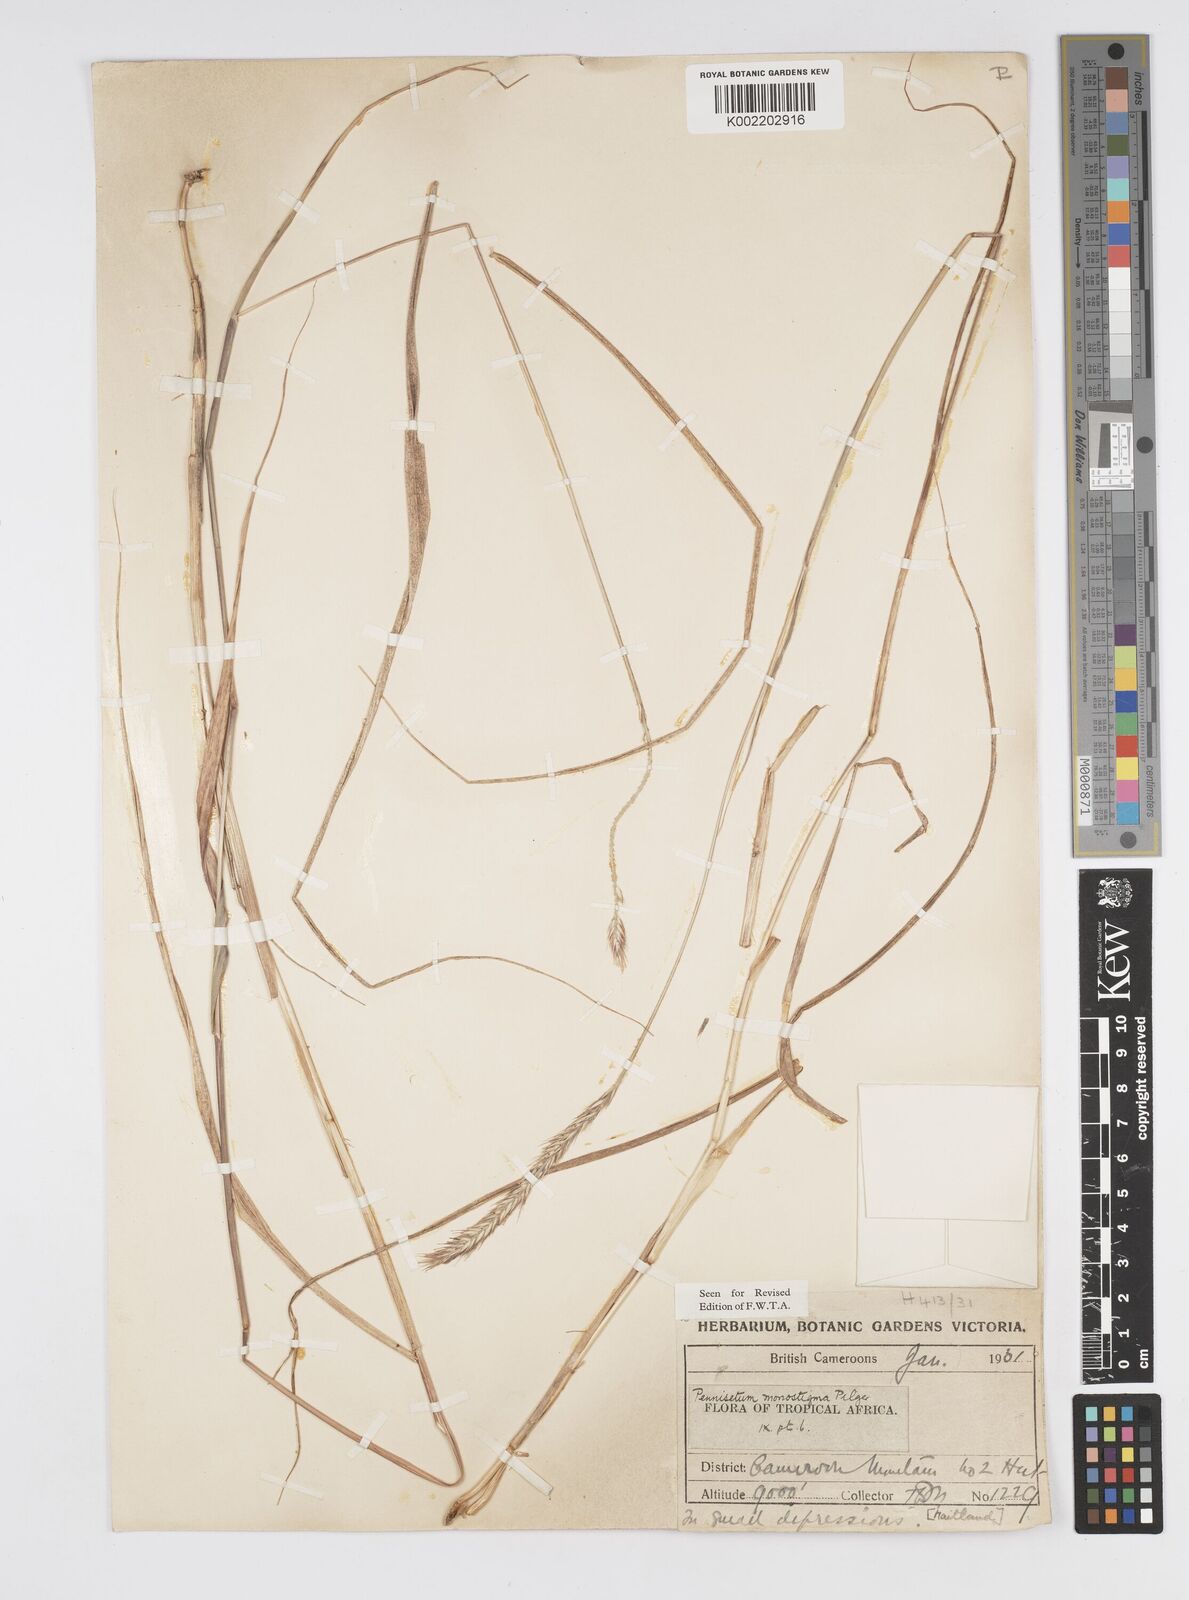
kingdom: Plantae
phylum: Tracheophyta
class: Liliopsida
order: Poales
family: Poaceae
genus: Cenchrus
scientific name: Cenchrus monostigma
